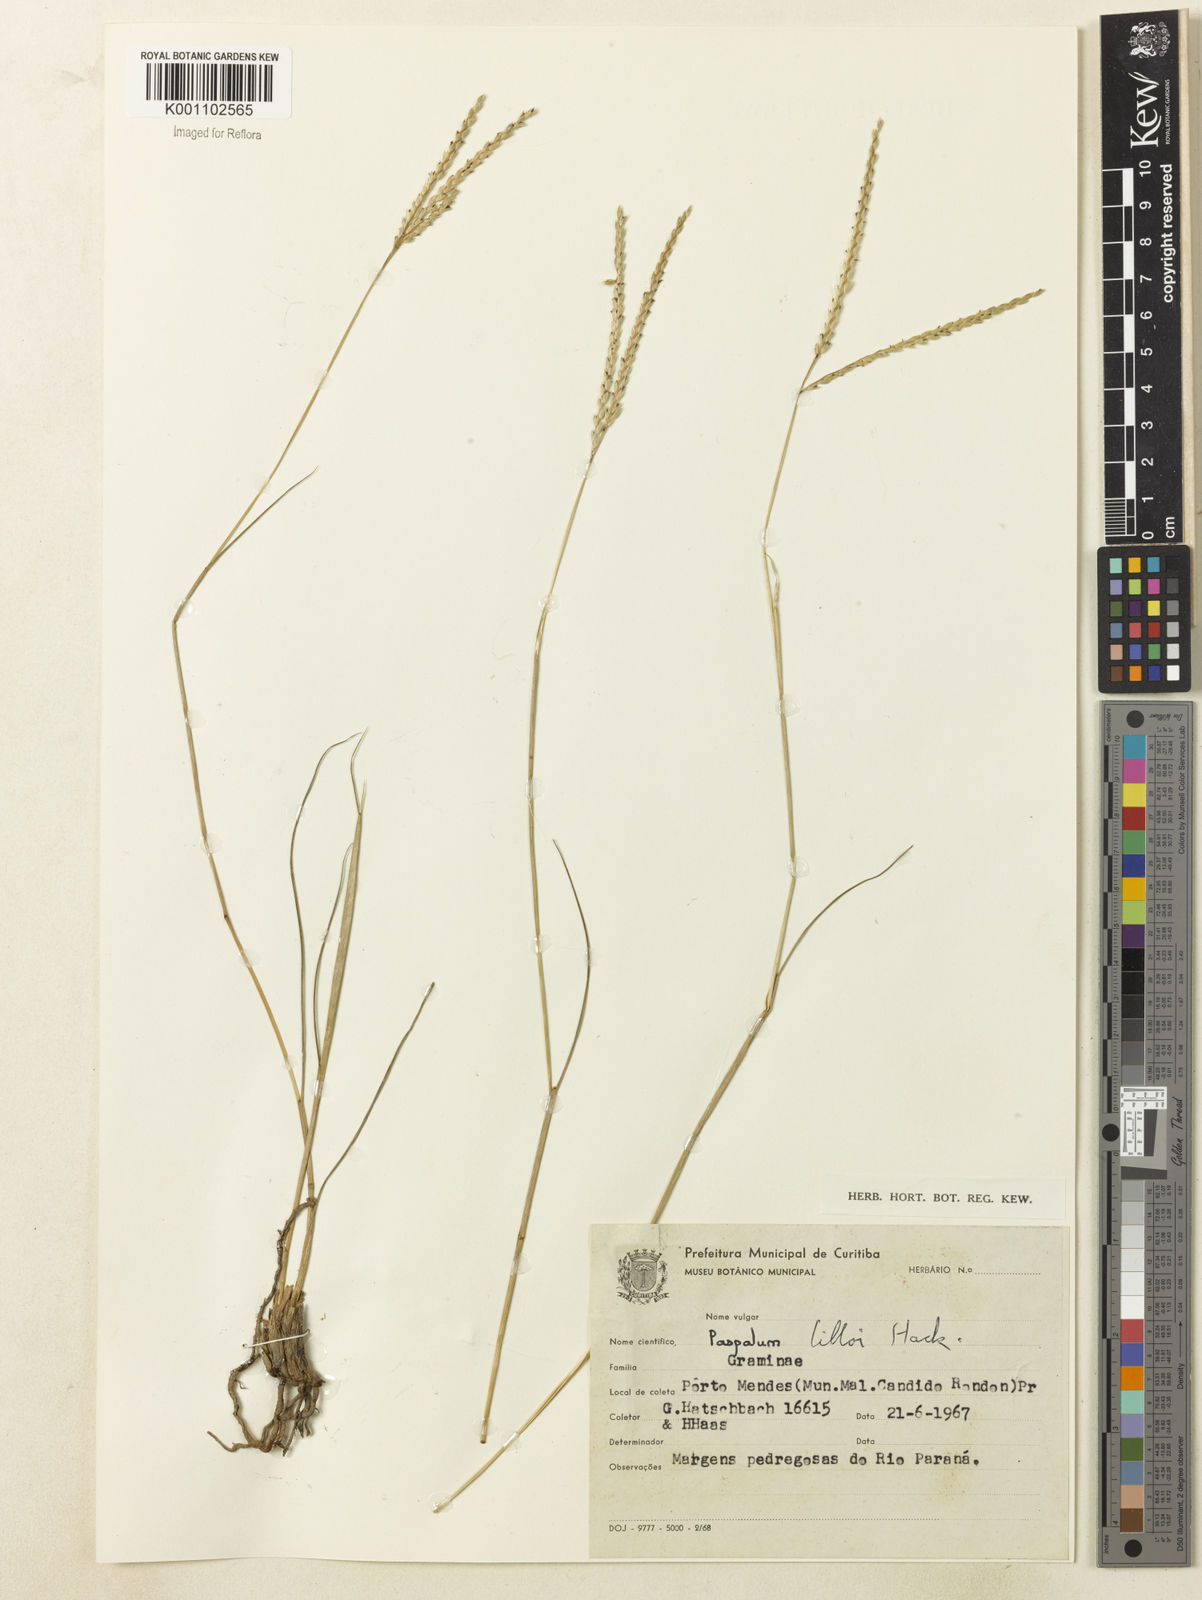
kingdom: Plantae
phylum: Tracheophyta
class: Liliopsida
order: Poales
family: Poaceae
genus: Paspalum
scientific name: Paspalum bertonii
